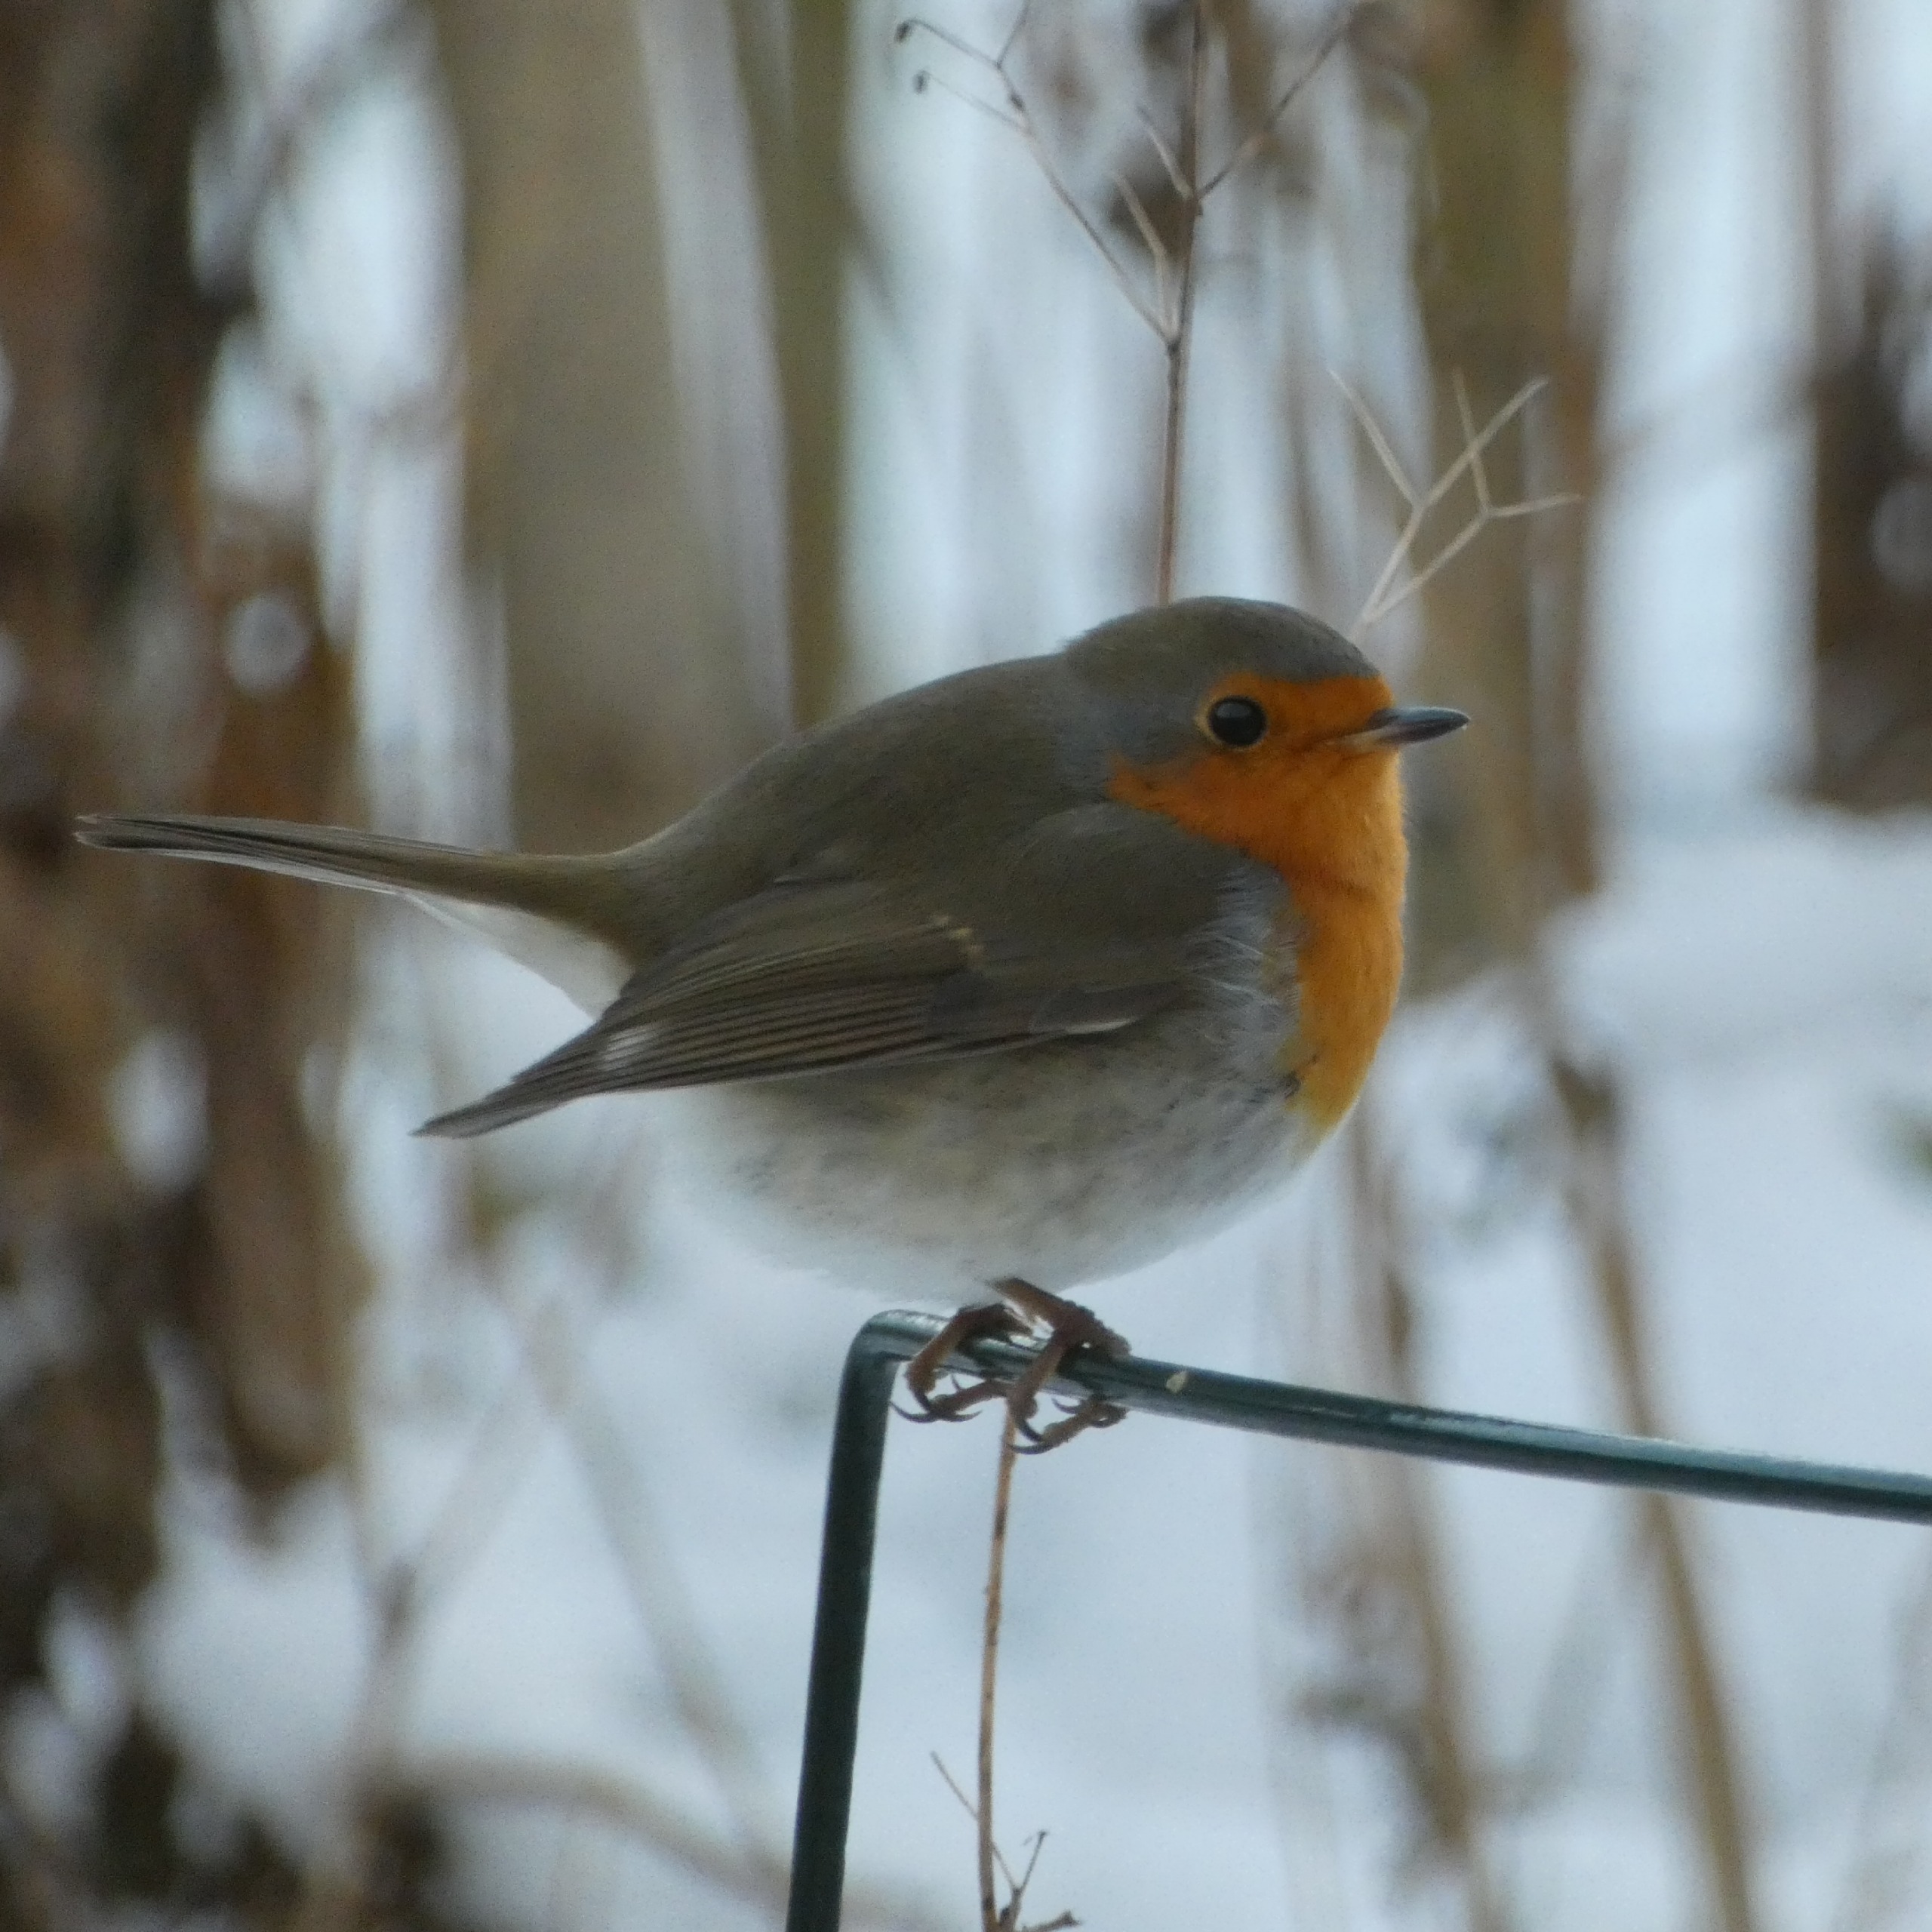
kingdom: Animalia
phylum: Chordata
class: Aves
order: Passeriformes
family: Muscicapidae
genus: Erithacus
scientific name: Erithacus rubecula
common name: Rødhals/rødkælk
